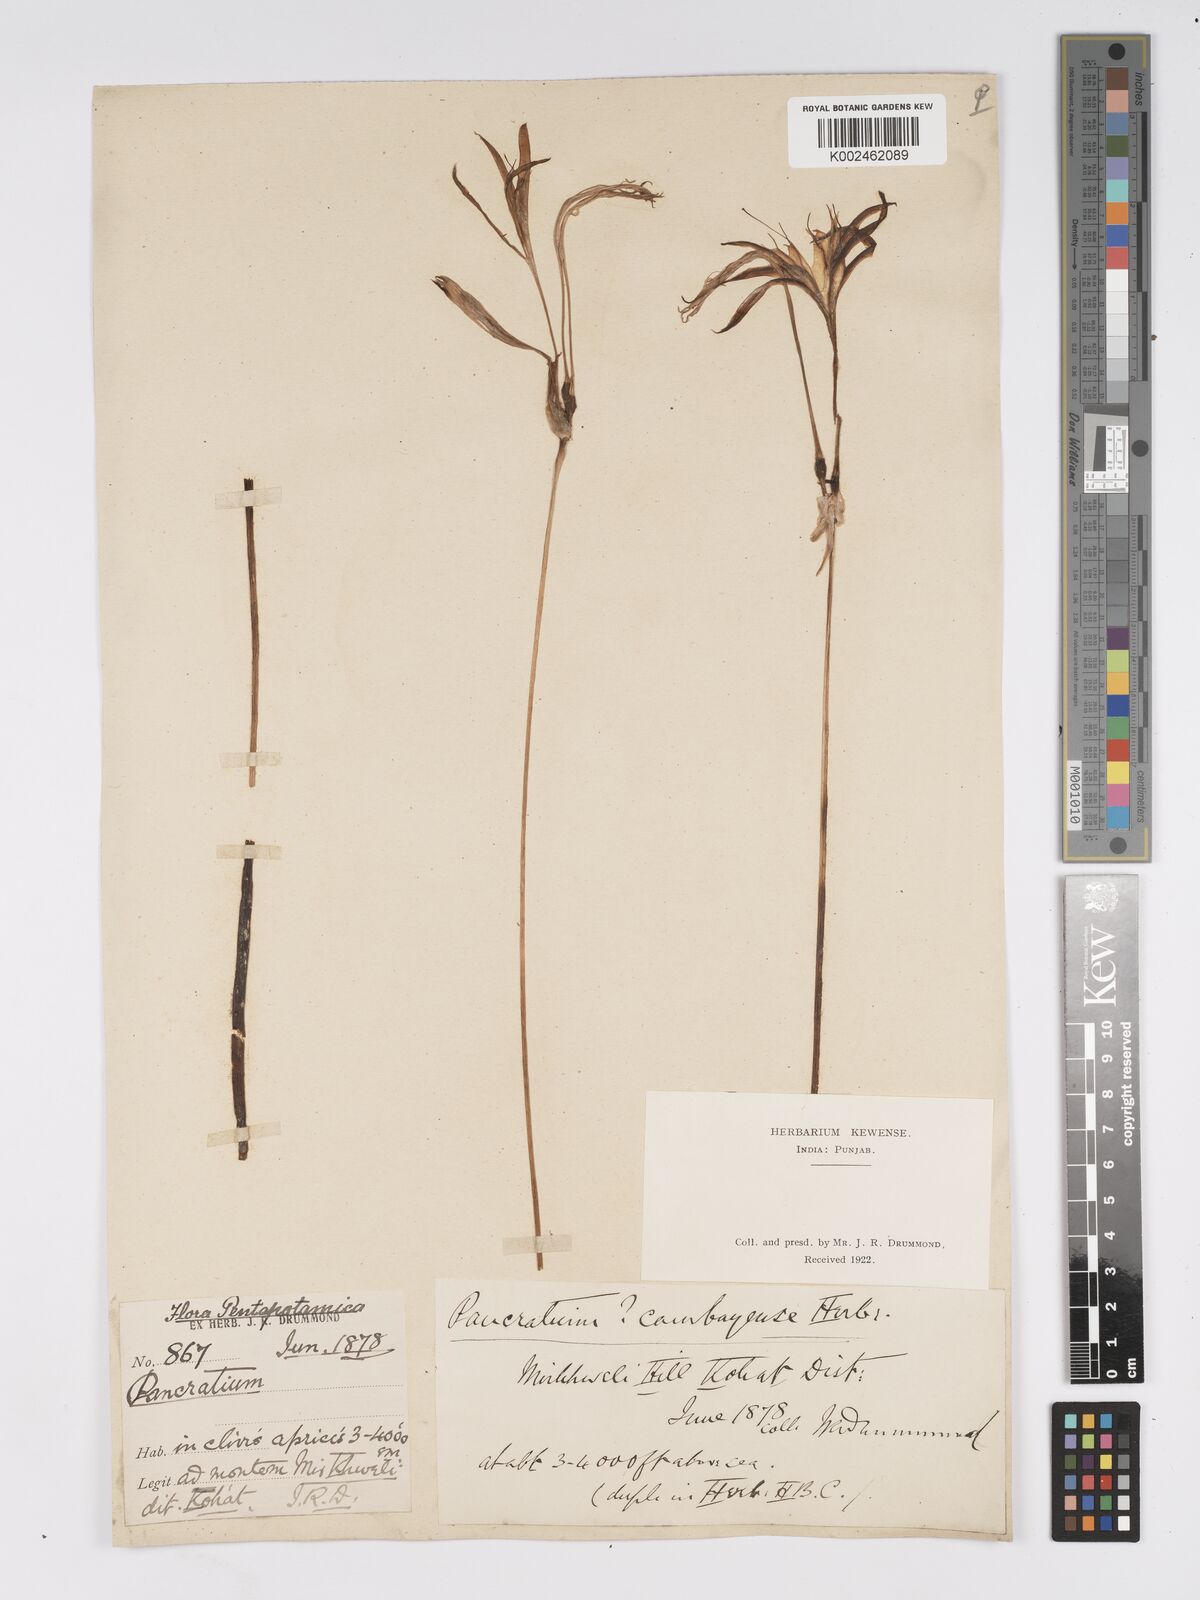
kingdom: Plantae
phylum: Tracheophyta
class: Liliopsida
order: Asparagales
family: Amaryllidaceae
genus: Pancratium
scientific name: Pancratium triflorum
